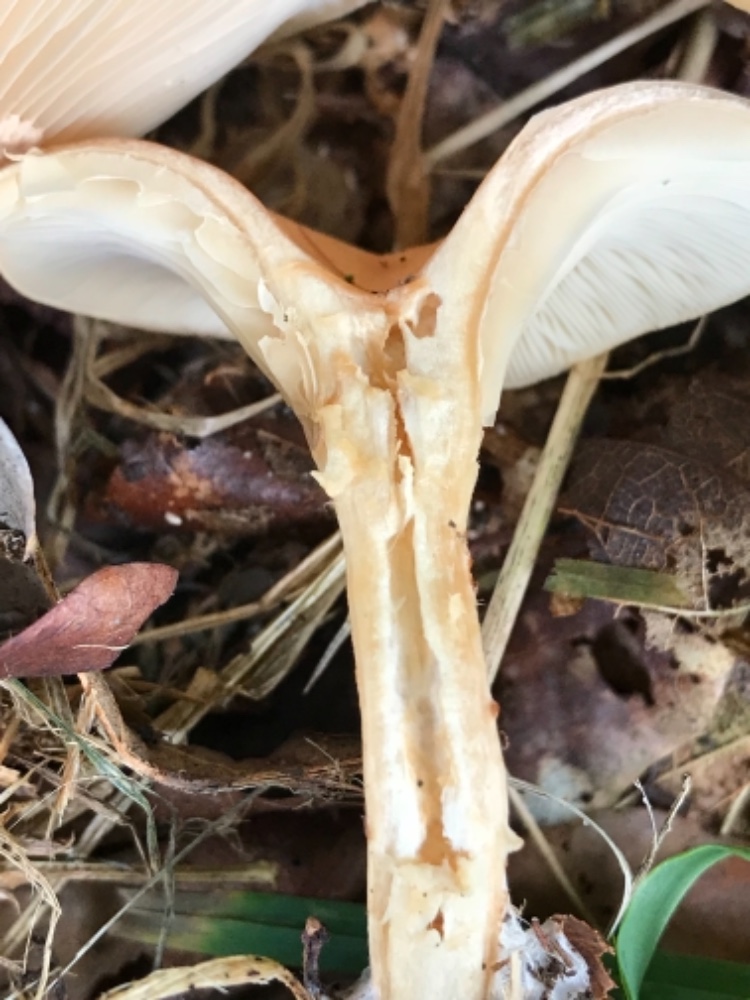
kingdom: Fungi
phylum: Basidiomycota
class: Agaricomycetes
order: Agaricales
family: Tricholomataceae
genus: Paralepista
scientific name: Paralepista flaccida
